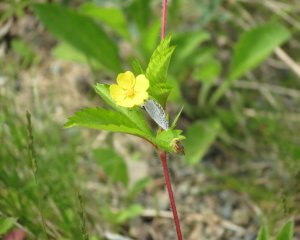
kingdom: Animalia
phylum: Arthropoda
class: Insecta
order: Lepidoptera
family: Lycaenidae
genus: Celastrina
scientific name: Celastrina serotina
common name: Cherry Gall Azure
